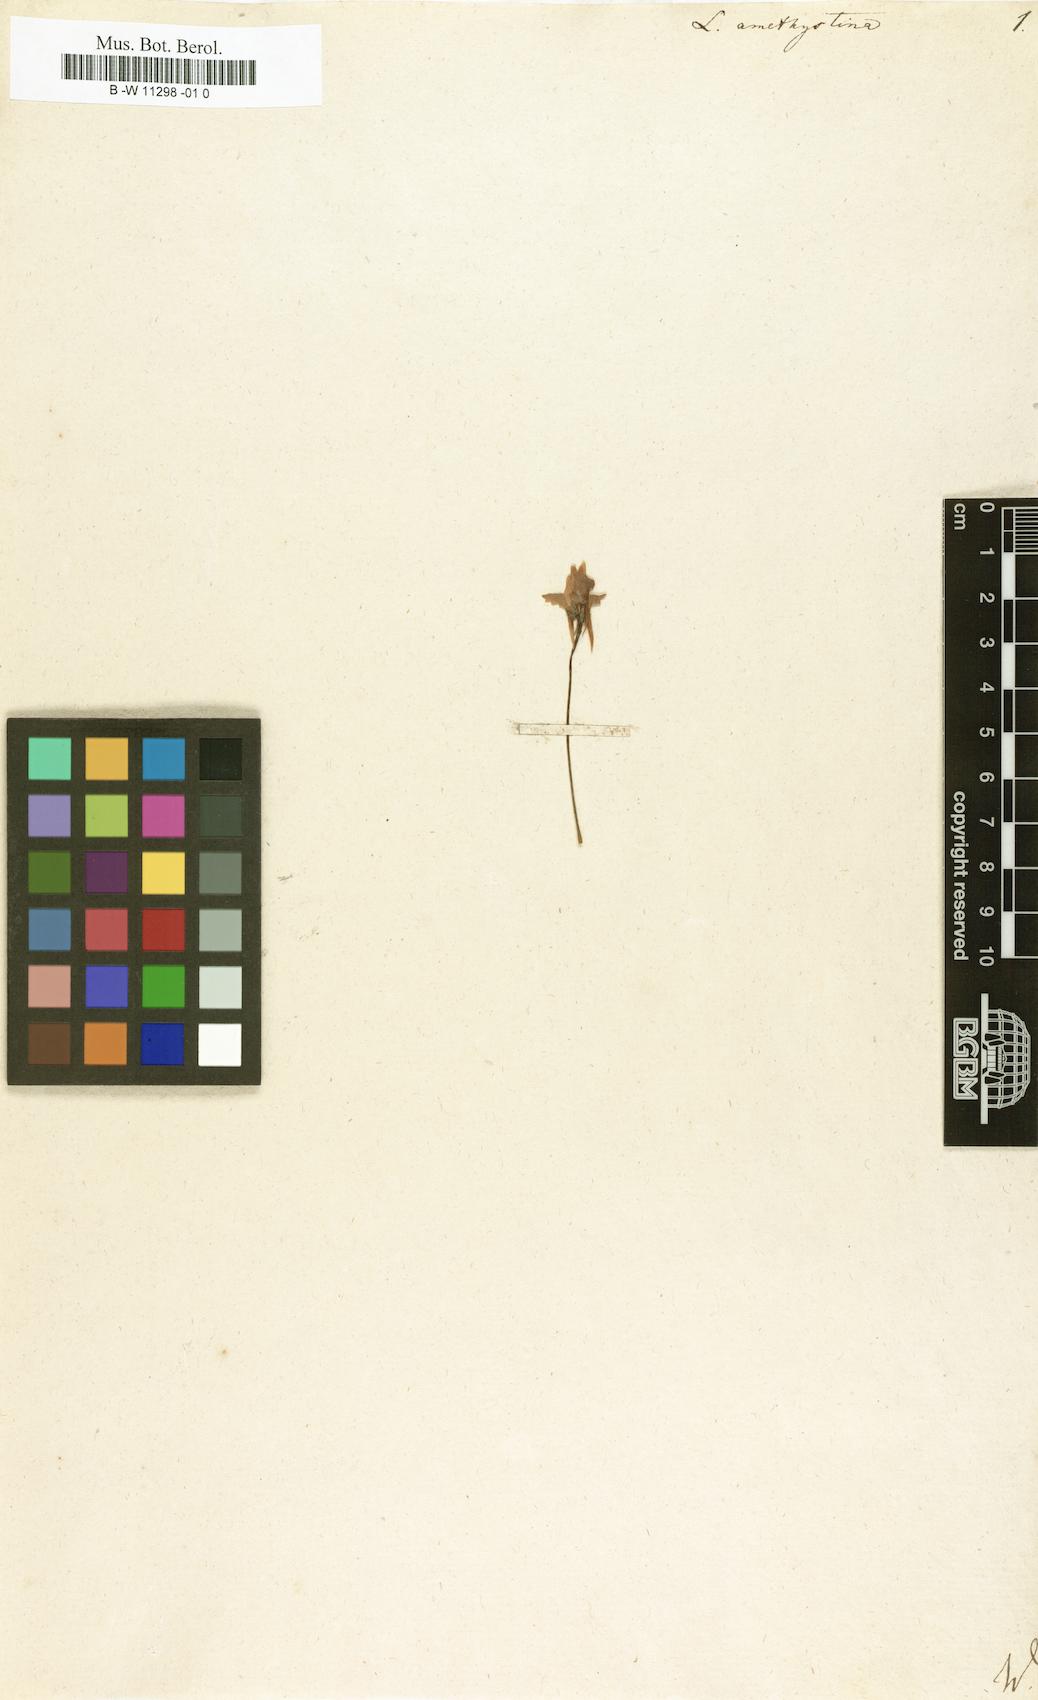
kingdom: Plantae
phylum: Tracheophyta
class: Magnoliopsida
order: Lamiales
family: Plantaginaceae
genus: Linaria
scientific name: Linaria incarnata
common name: Annual toadflax
